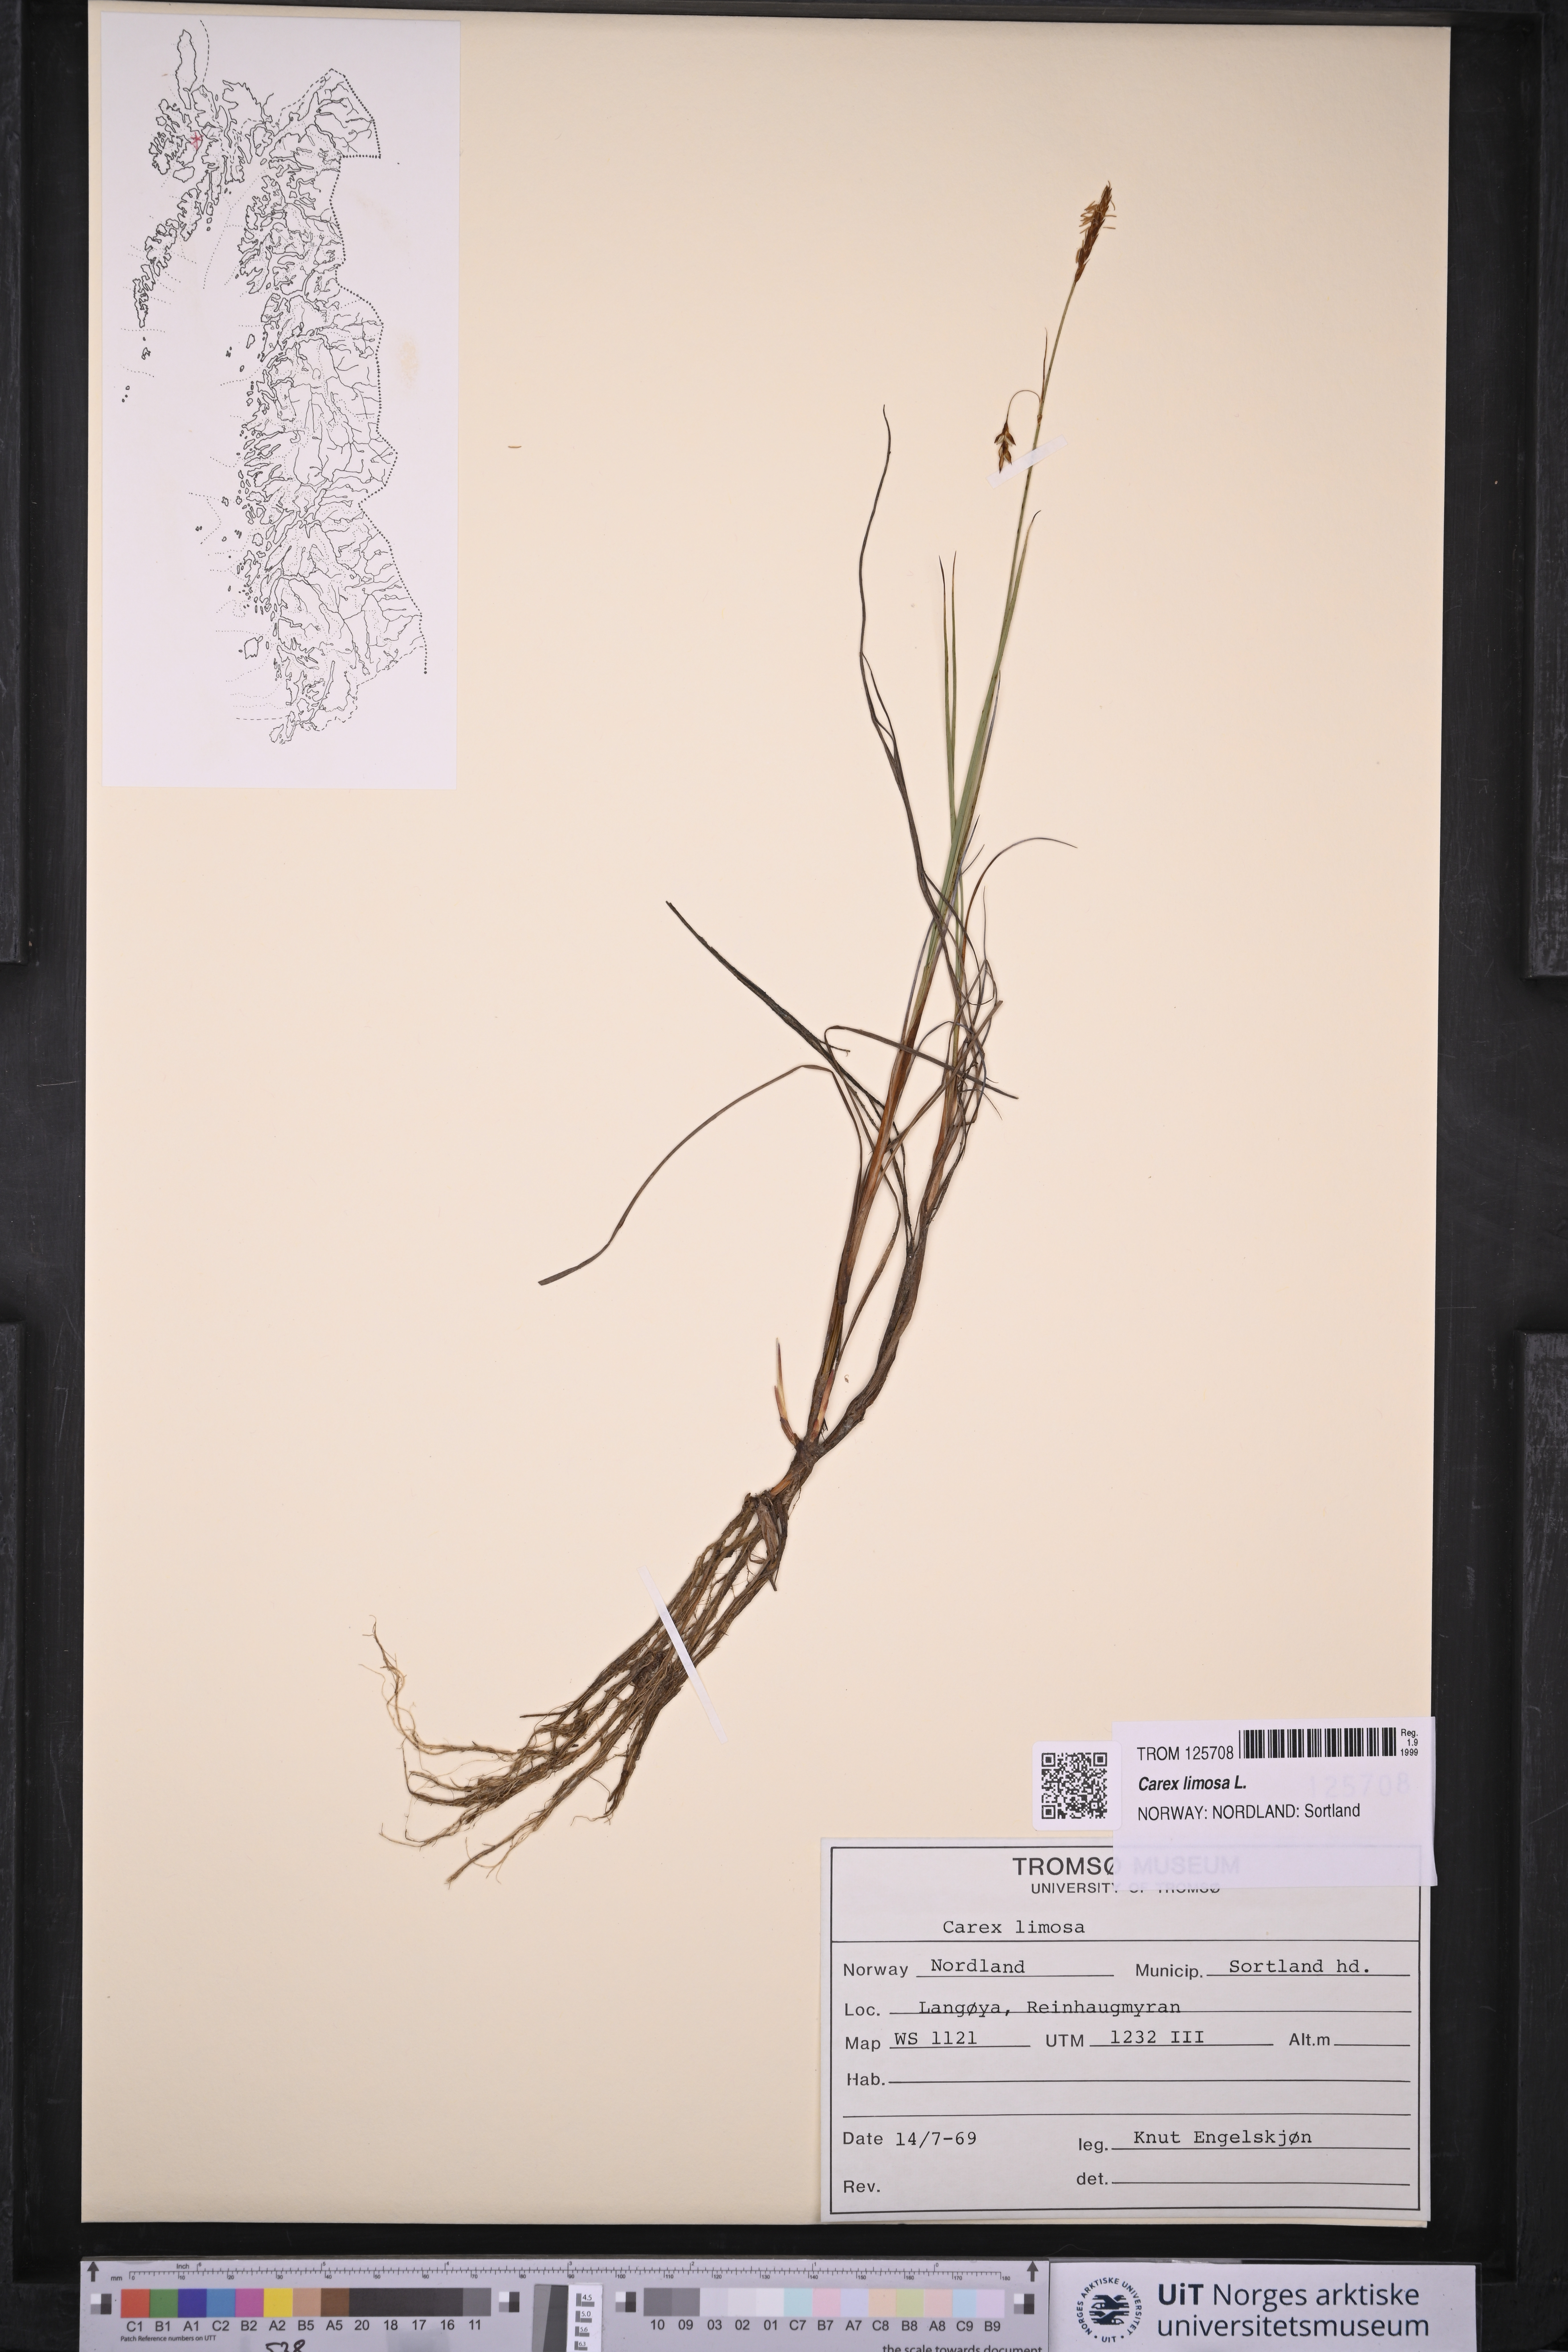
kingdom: Plantae
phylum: Tracheophyta
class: Liliopsida
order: Poales
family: Cyperaceae
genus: Carex
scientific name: Carex limosa
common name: Bog sedge
